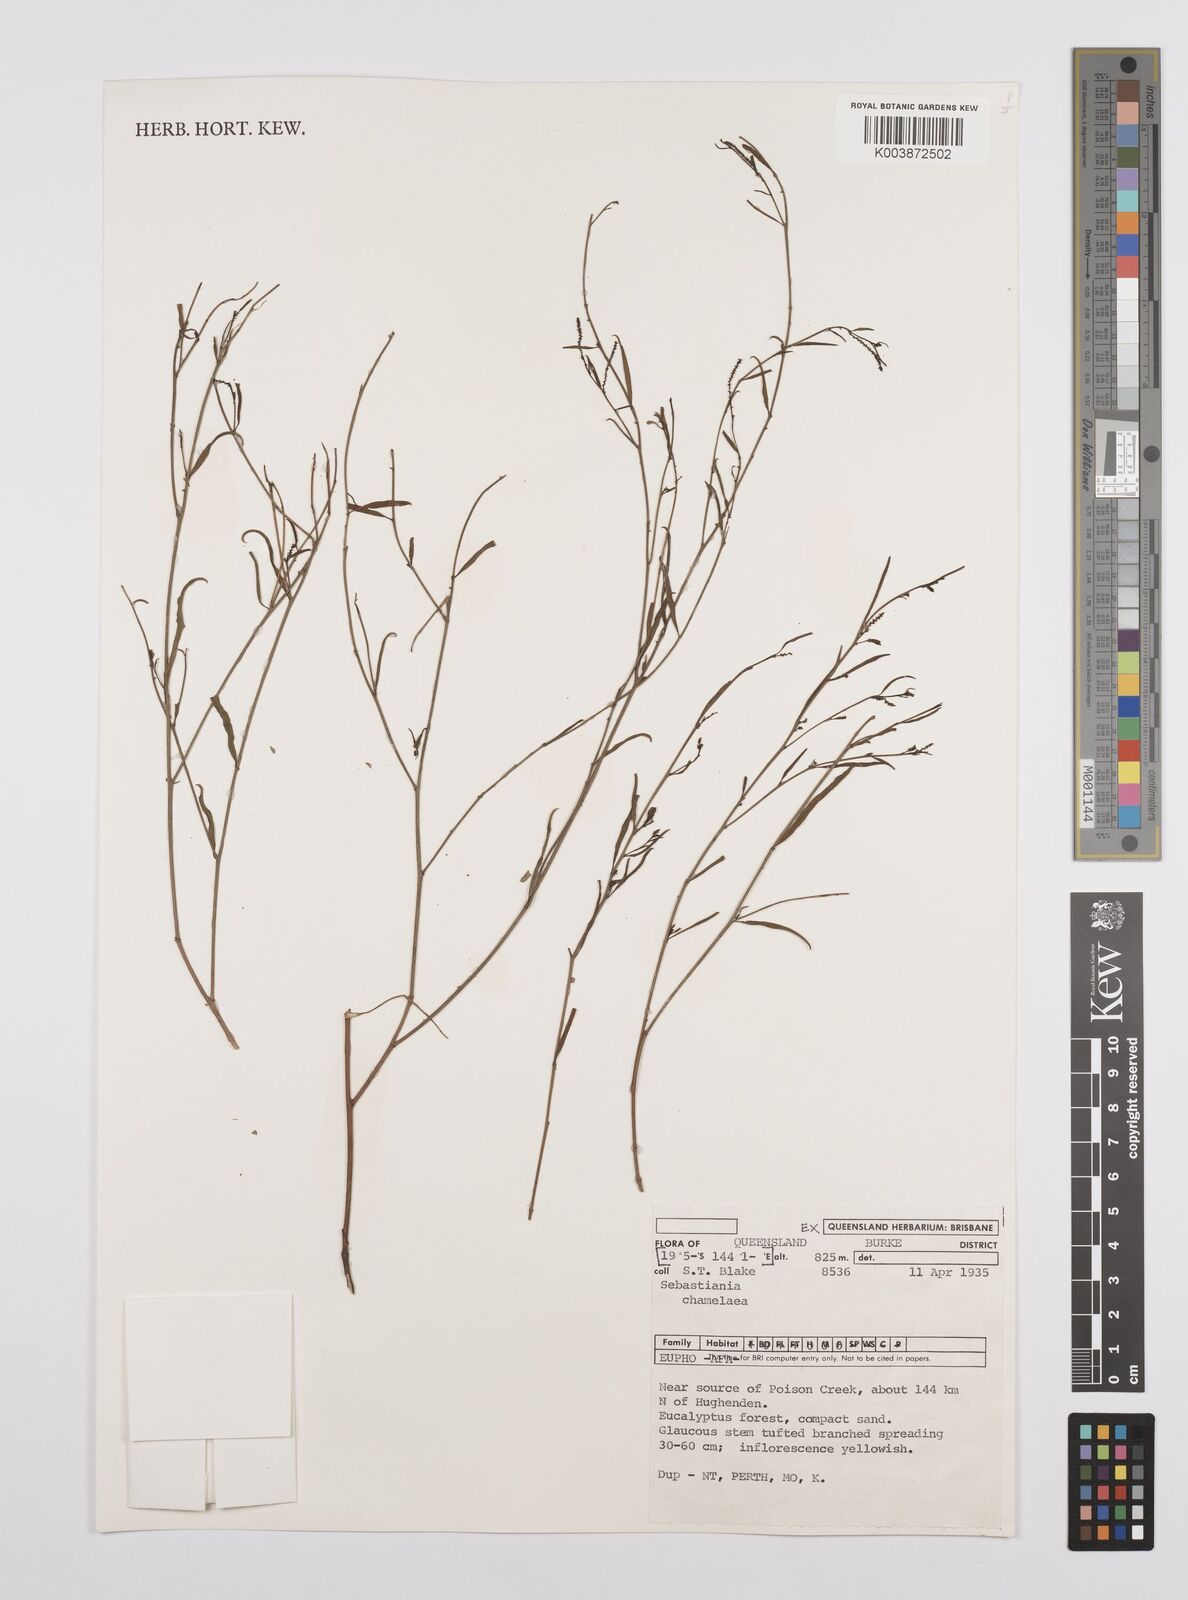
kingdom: Plantae
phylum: Tracheophyta
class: Magnoliopsida
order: Malpighiales
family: Euphorbiaceae
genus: Microstachys
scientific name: Microstachys chamaelea
